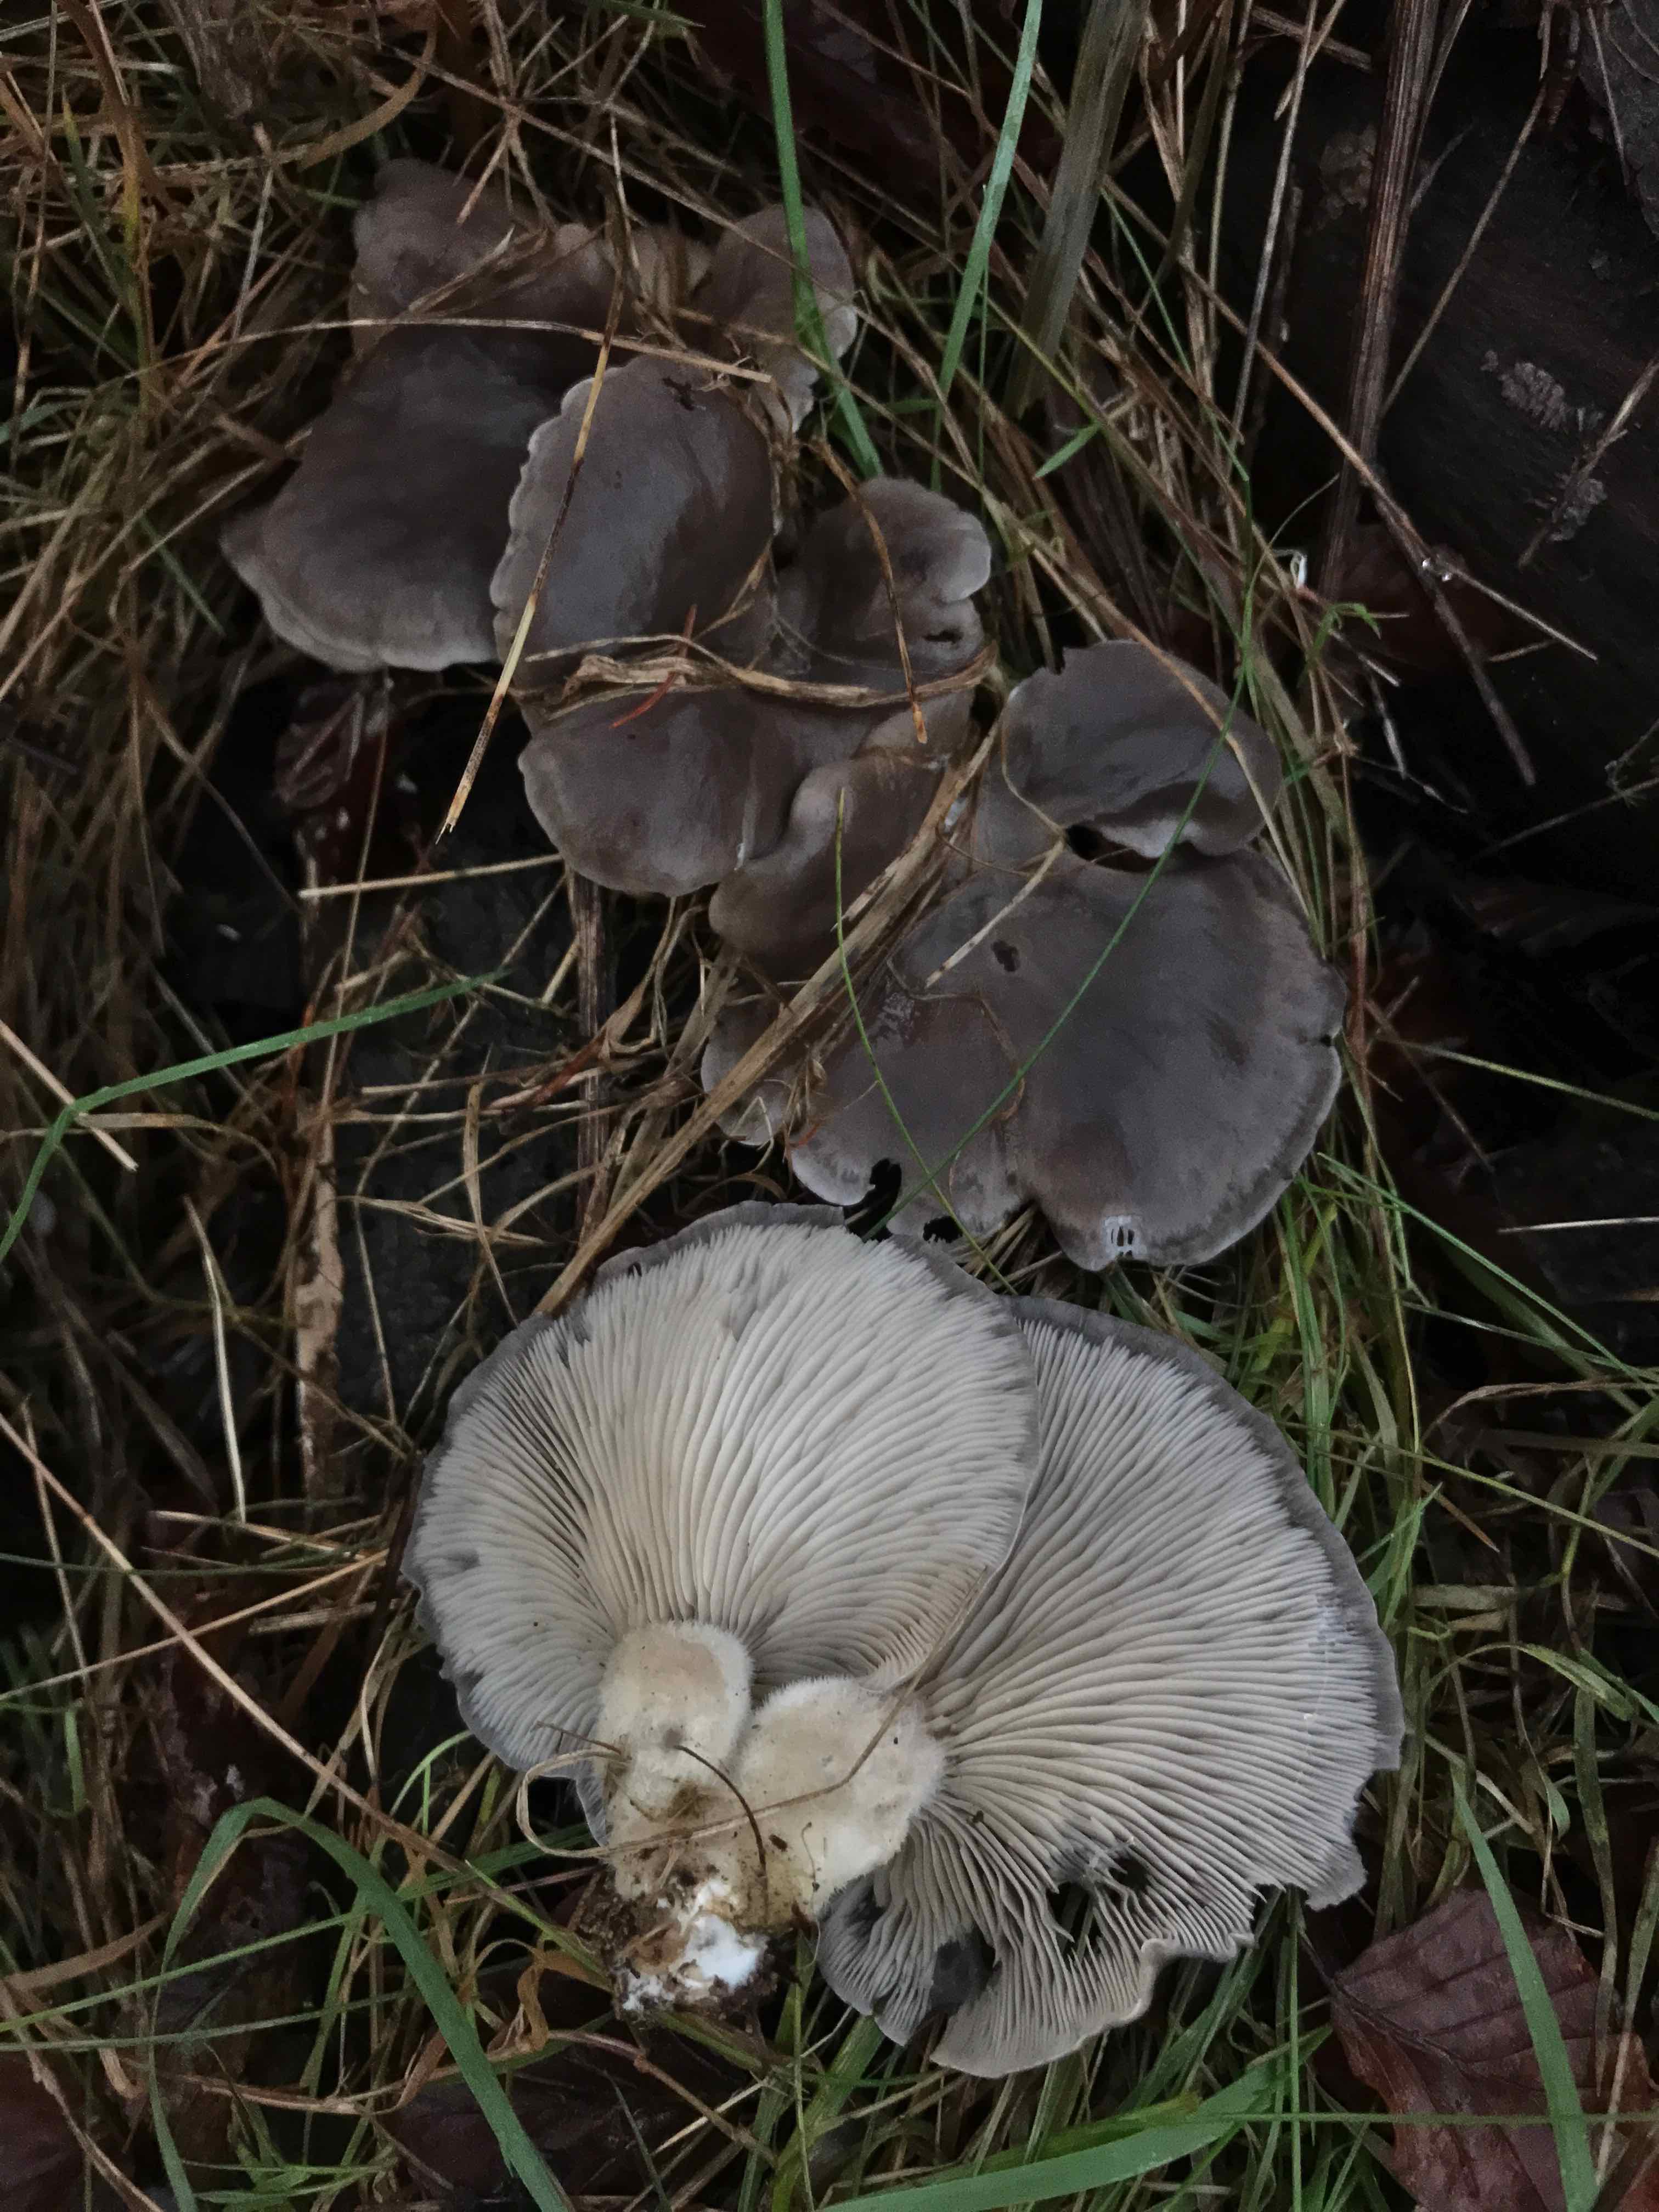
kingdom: Fungi
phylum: Basidiomycota
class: Agaricomycetes
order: Agaricales
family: Pleurotaceae
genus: Pleurotus
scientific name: Pleurotus ostreatus
